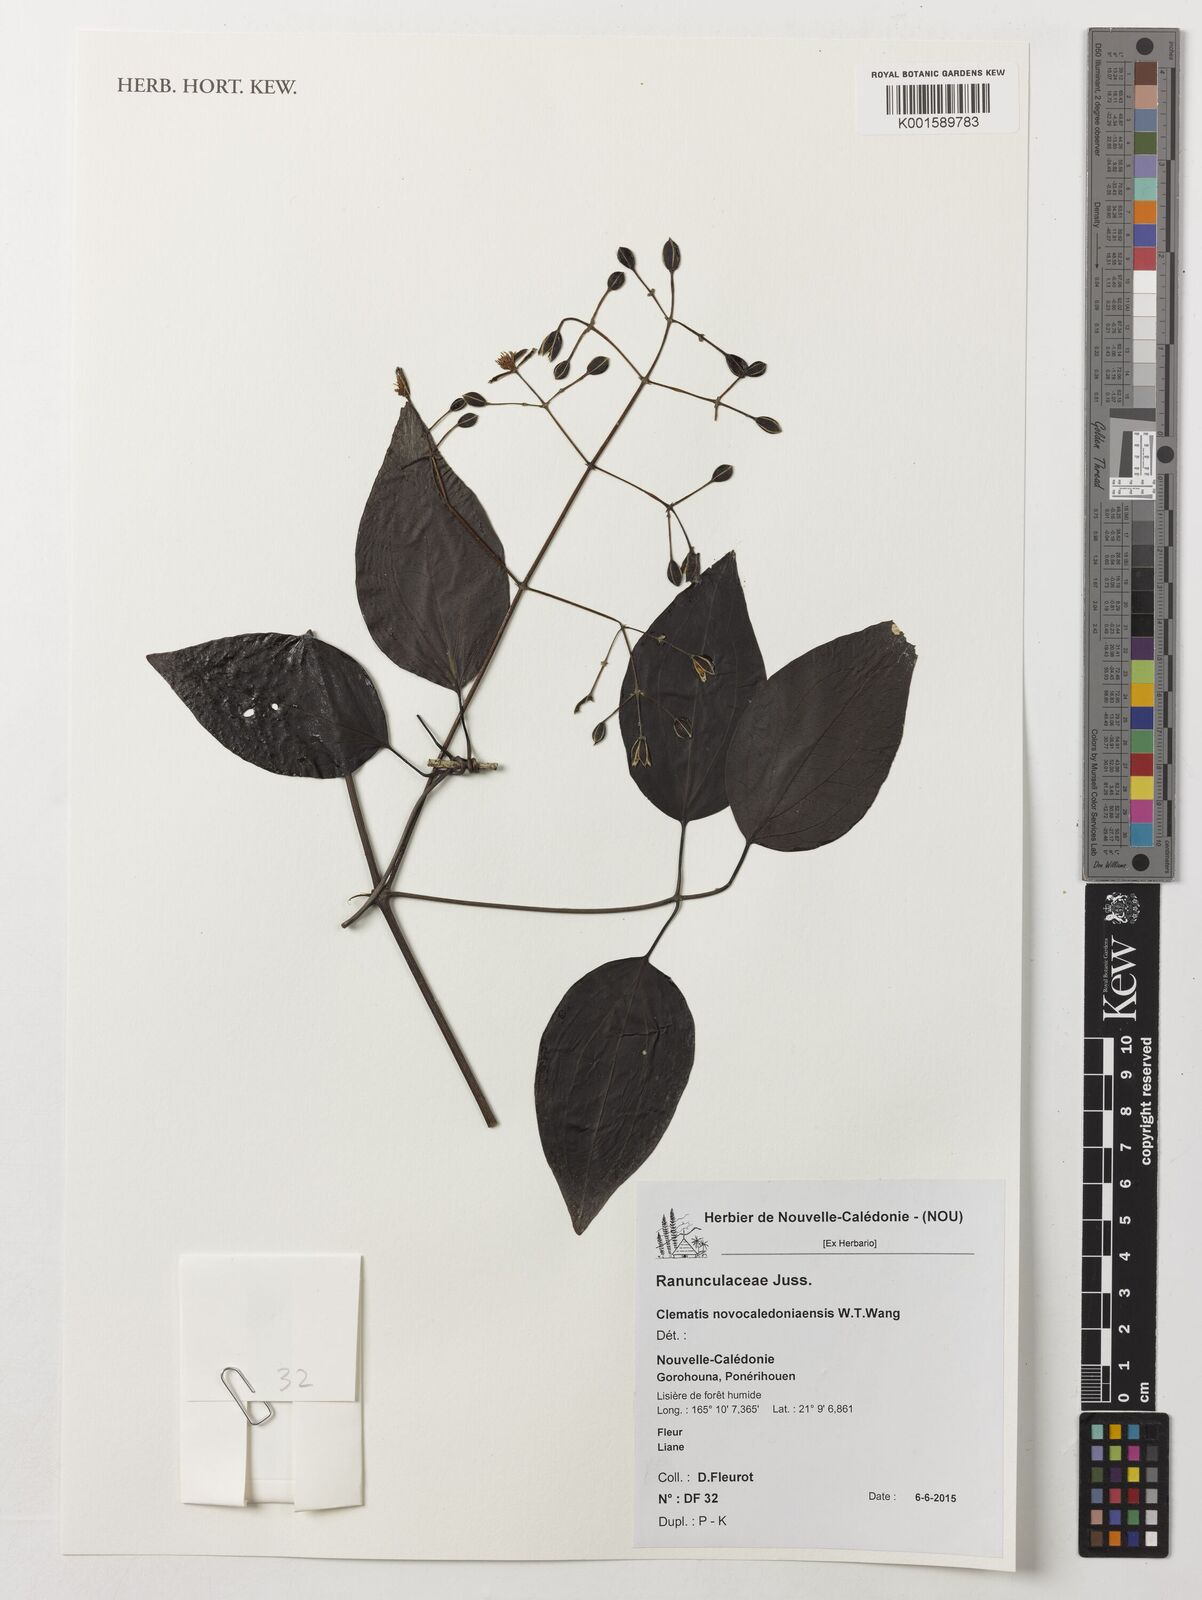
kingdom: Plantae
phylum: Tracheophyta
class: Magnoliopsida
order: Ranunculales
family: Ranunculaceae
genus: Clematis
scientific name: Clematis novocaledoniaensis
